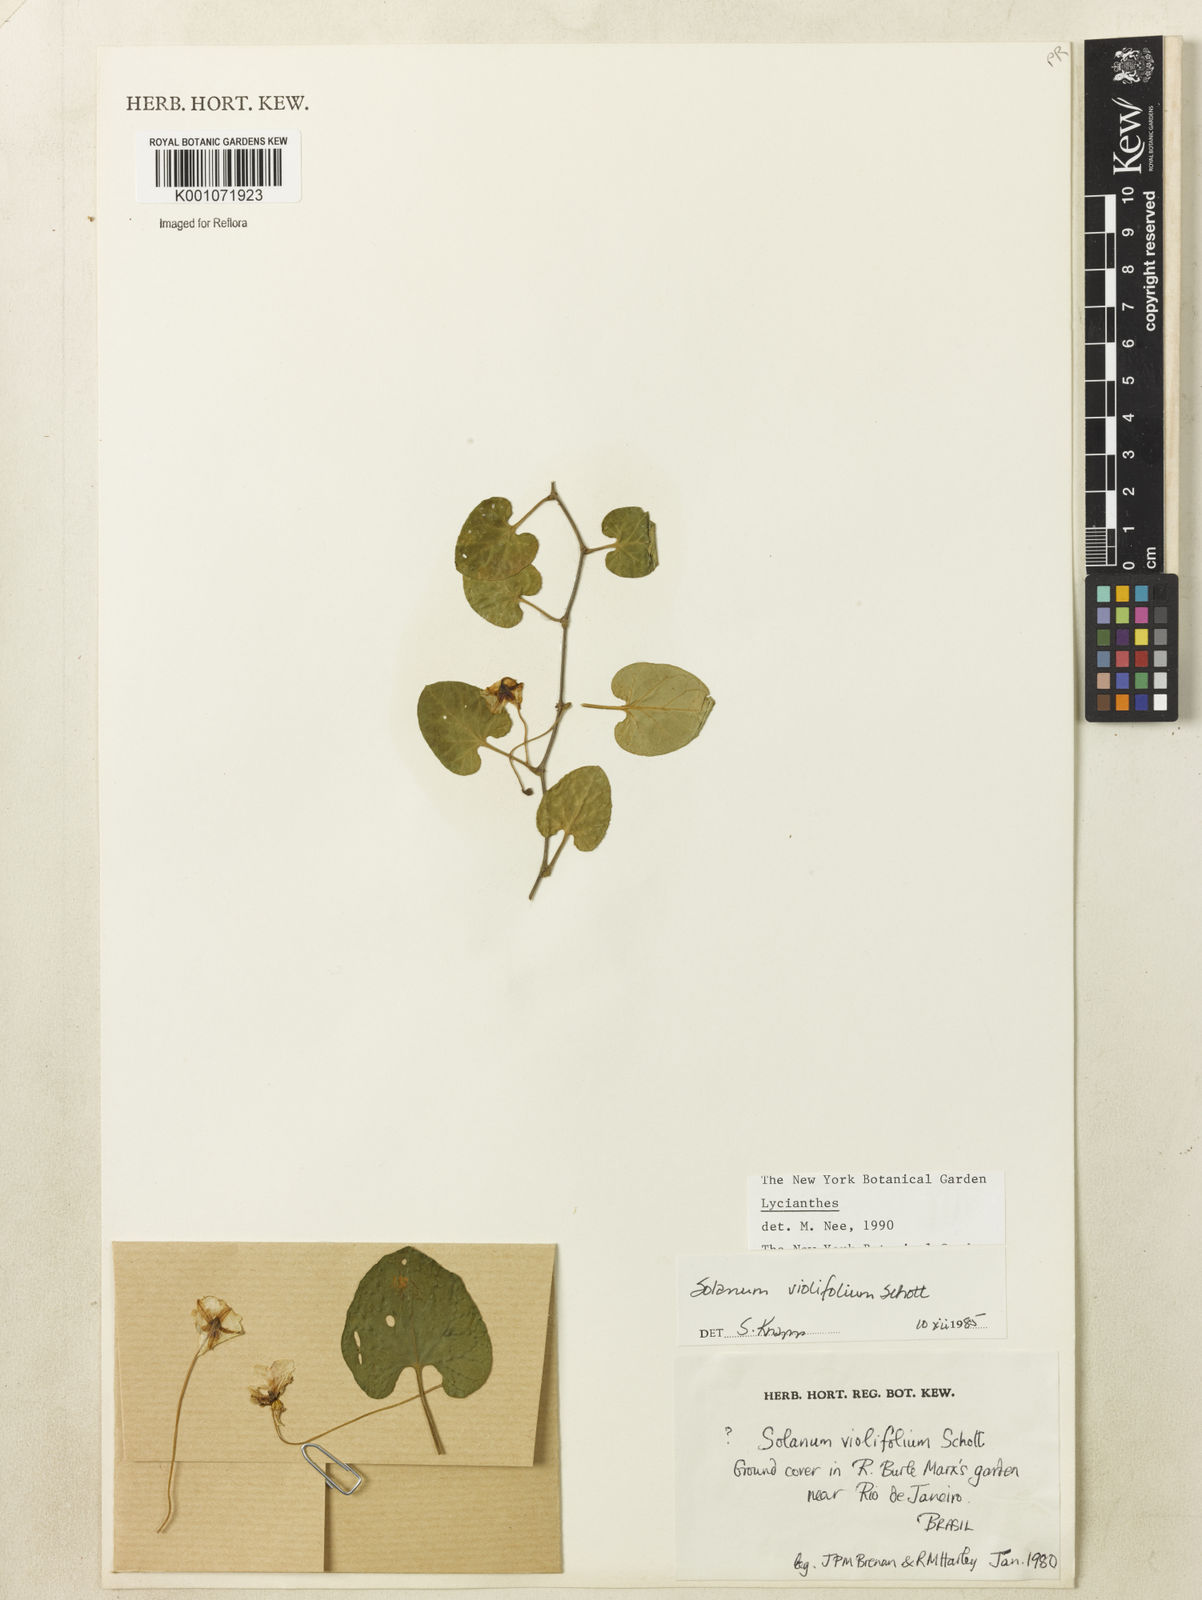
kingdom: Plantae
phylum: Tracheophyta
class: Magnoliopsida
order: Solanales
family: Solanaceae
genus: Lycianthes
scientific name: Lycianthes
